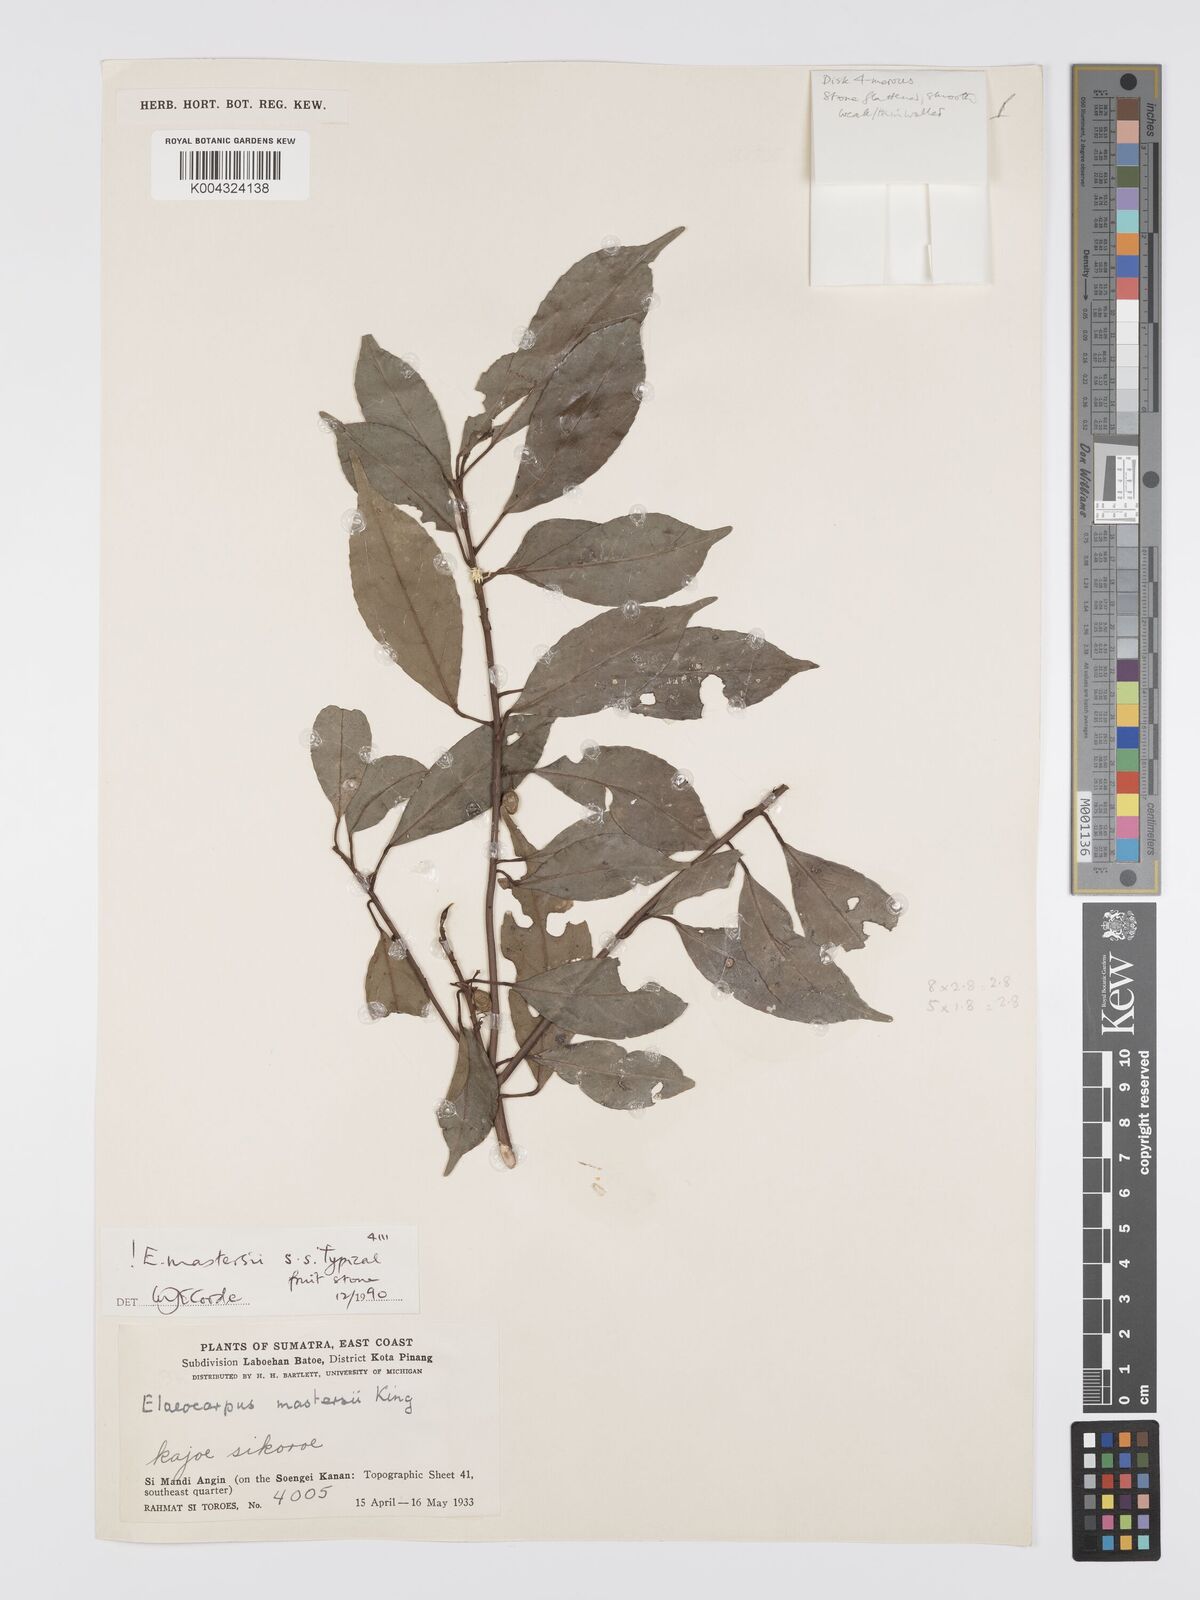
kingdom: Plantae
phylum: Tracheophyta
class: Magnoliopsida
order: Oxalidales
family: Elaeocarpaceae
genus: Elaeocarpus
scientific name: Elaeocarpus mastersii
